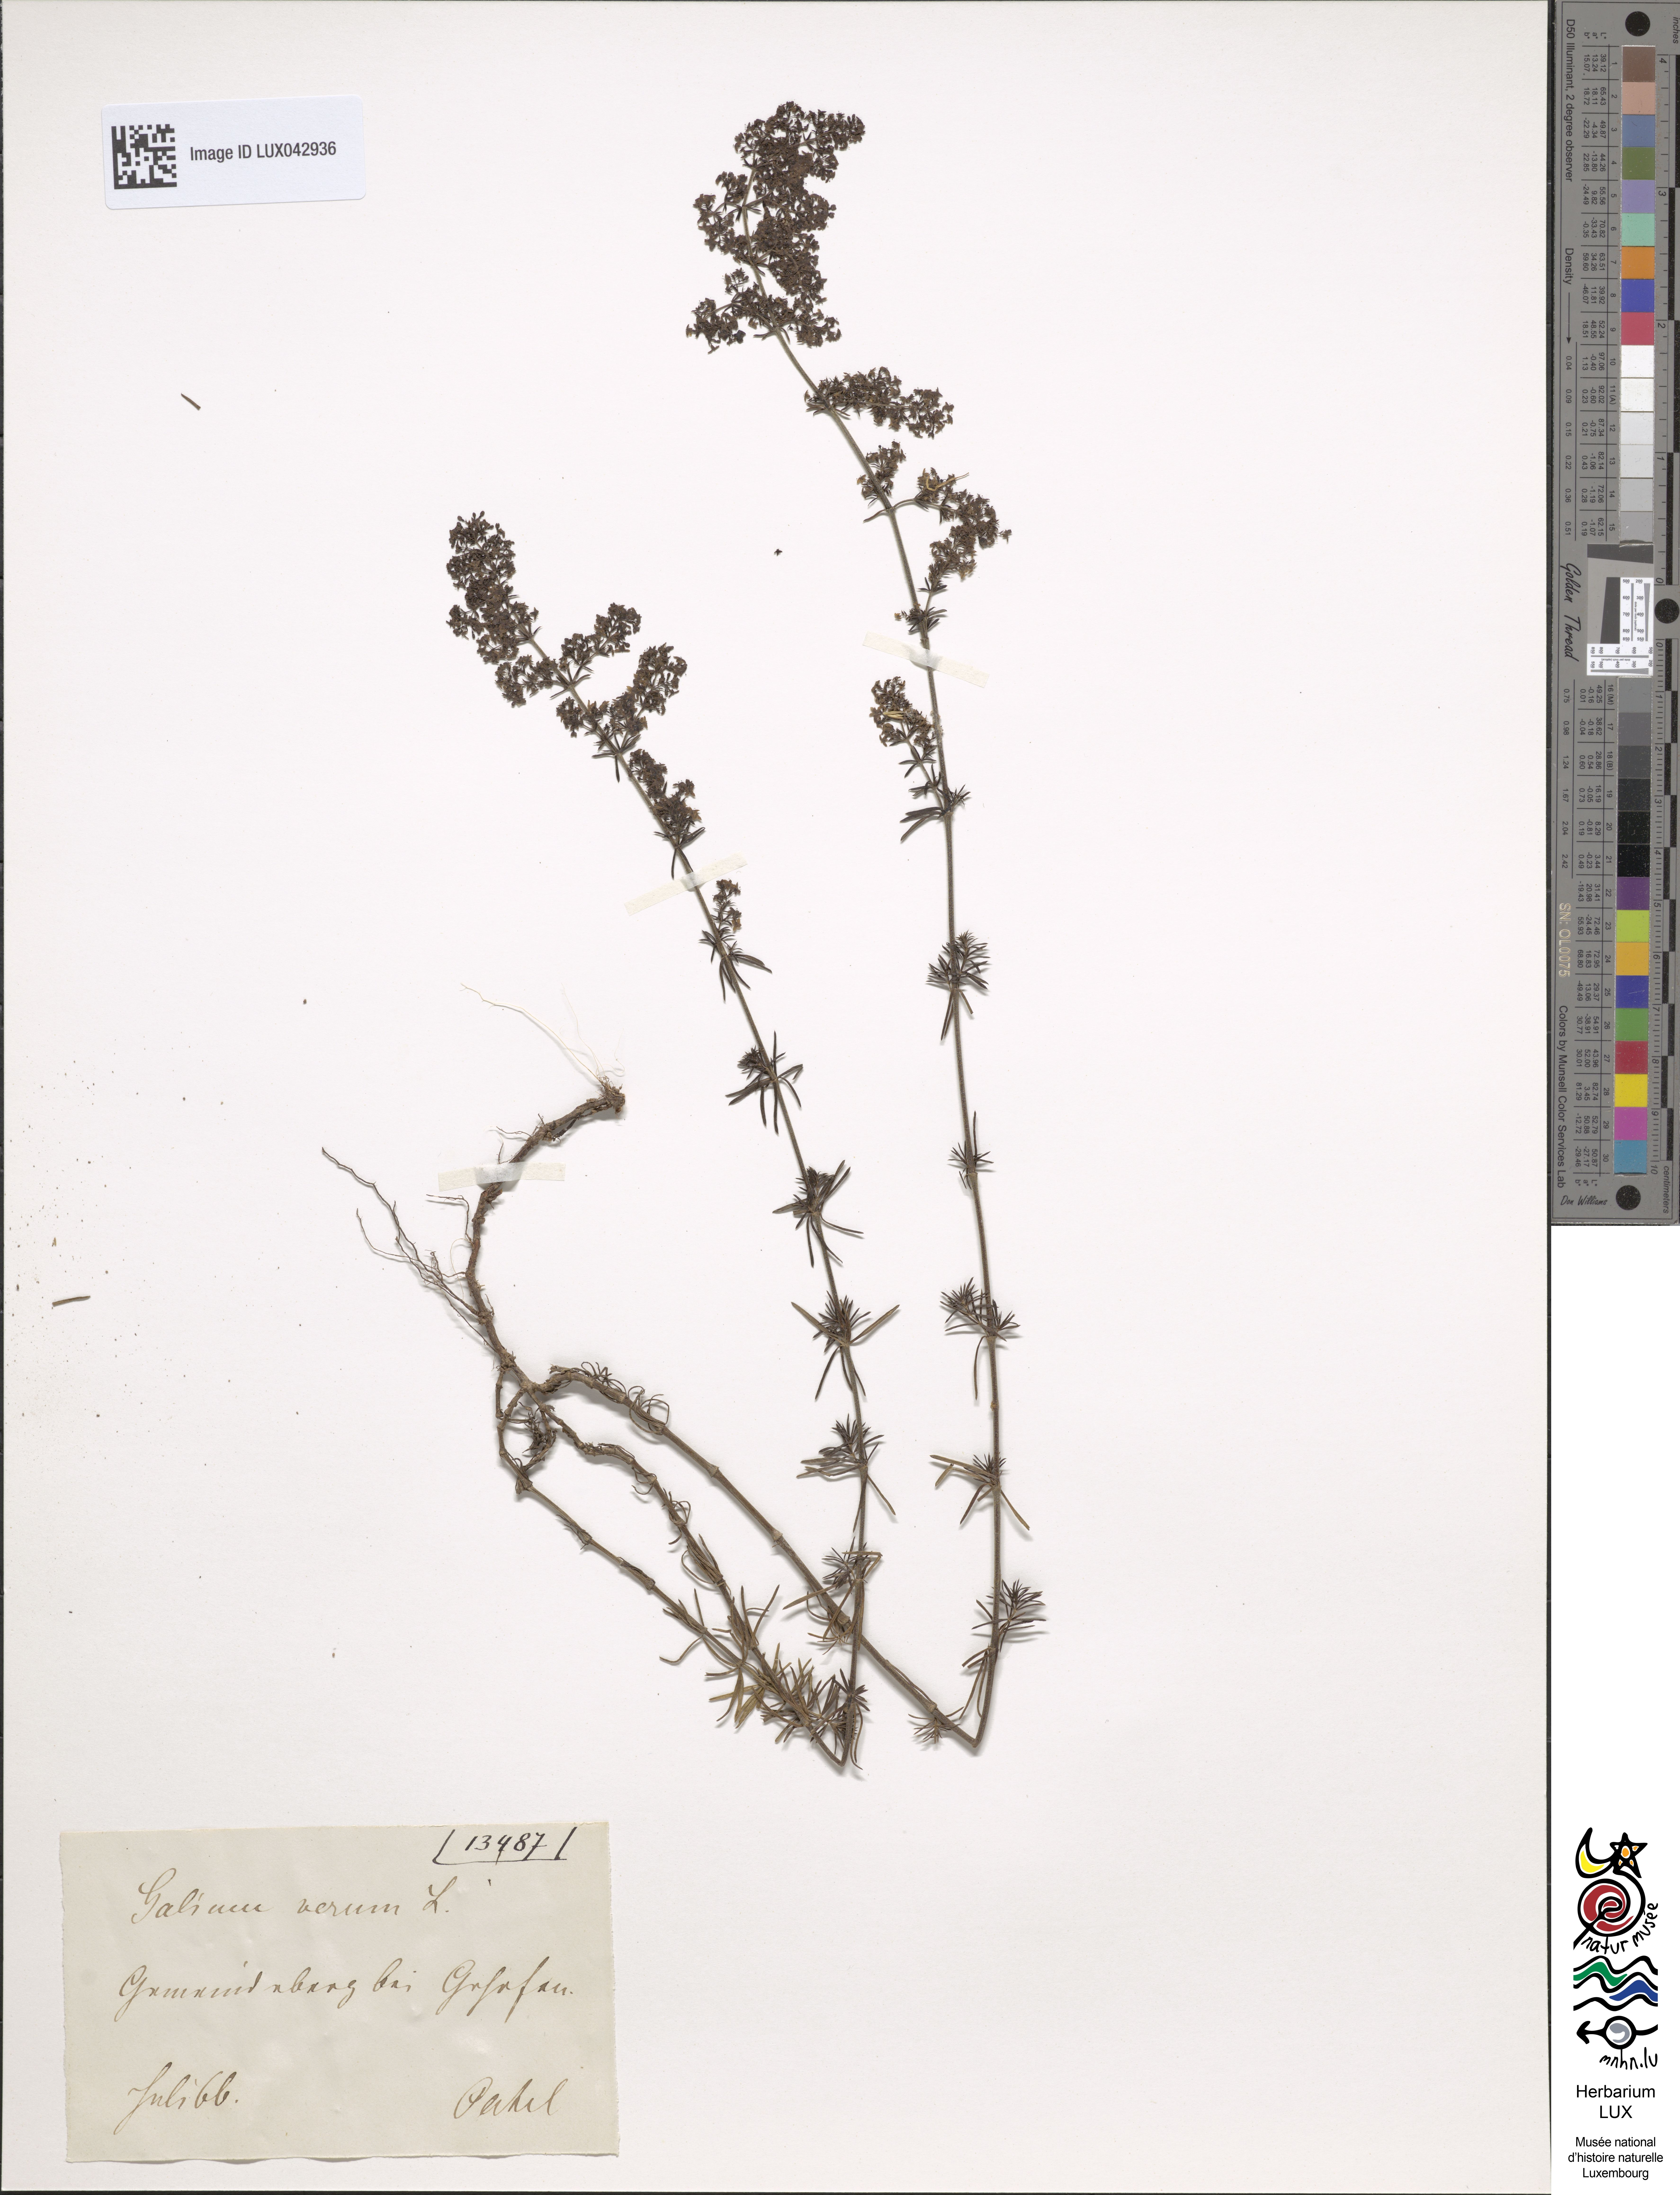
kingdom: Plantae
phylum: Tracheophyta
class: Magnoliopsida
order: Gentianales
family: Rubiaceae
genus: Galium
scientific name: Galium verum
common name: Lady's bedstraw
